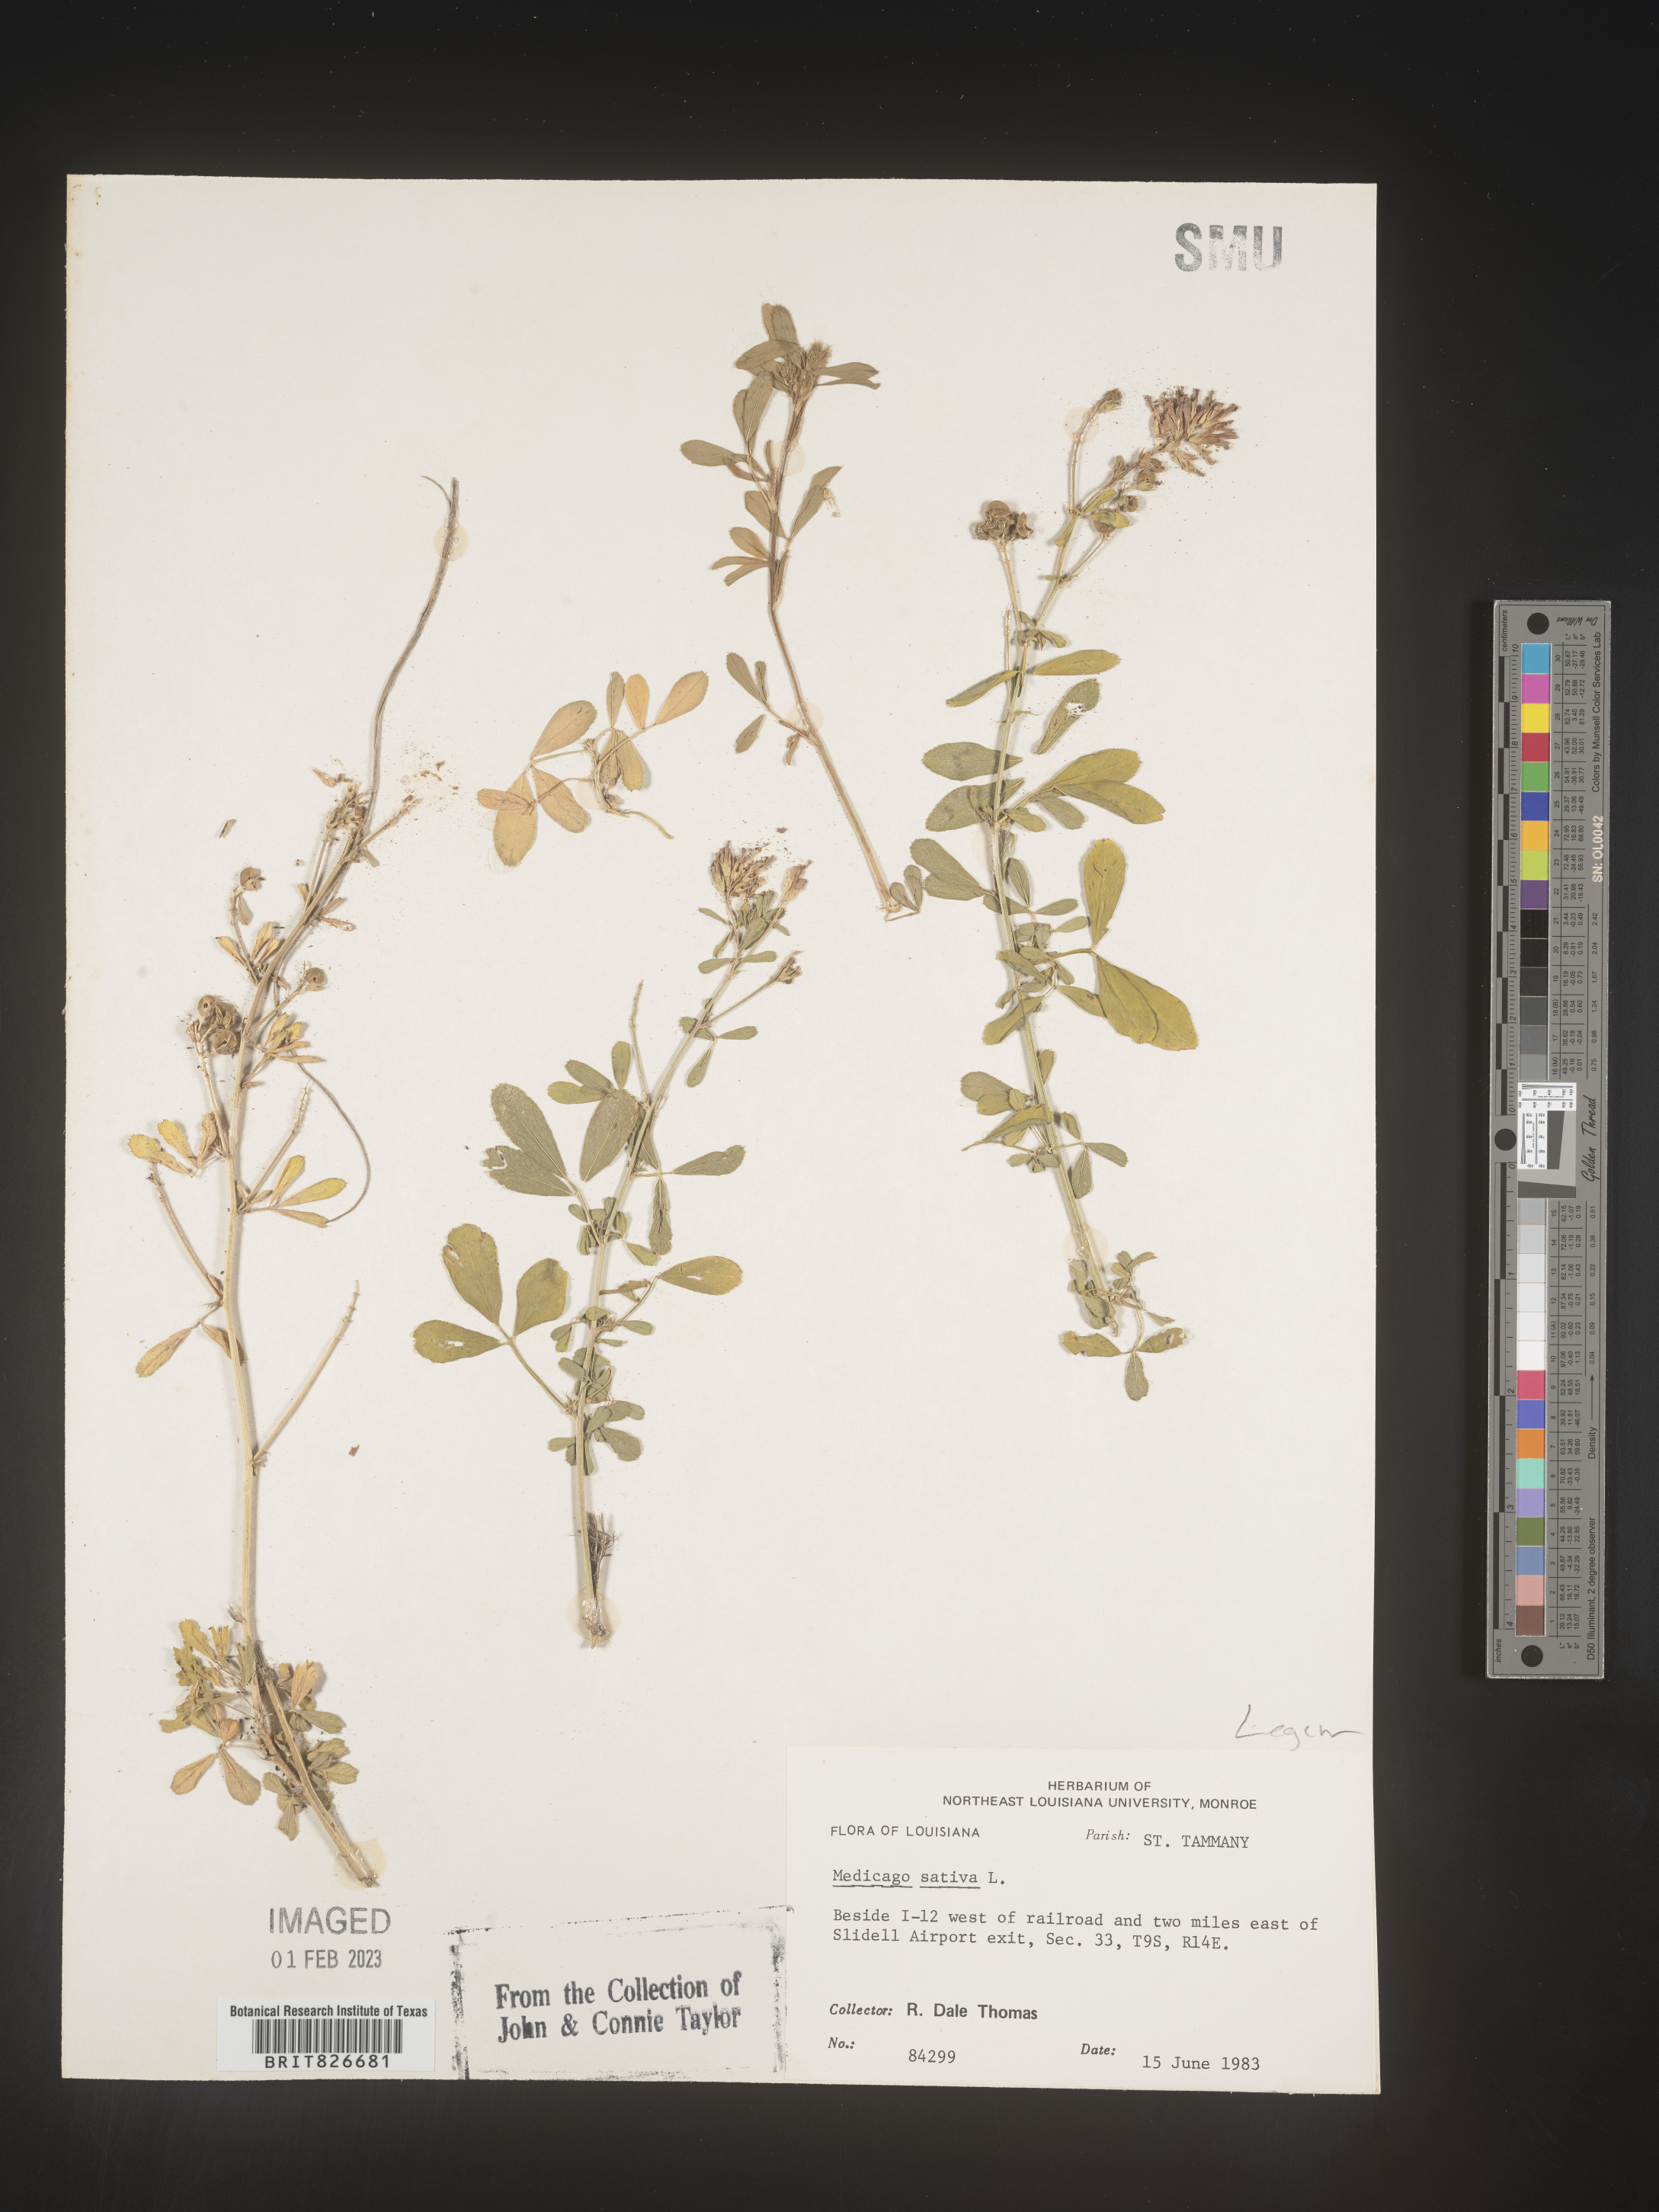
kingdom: Plantae
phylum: Tracheophyta
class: Magnoliopsida
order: Fabales
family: Fabaceae
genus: Medicago
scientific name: Medicago sativa
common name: Alfalfa
